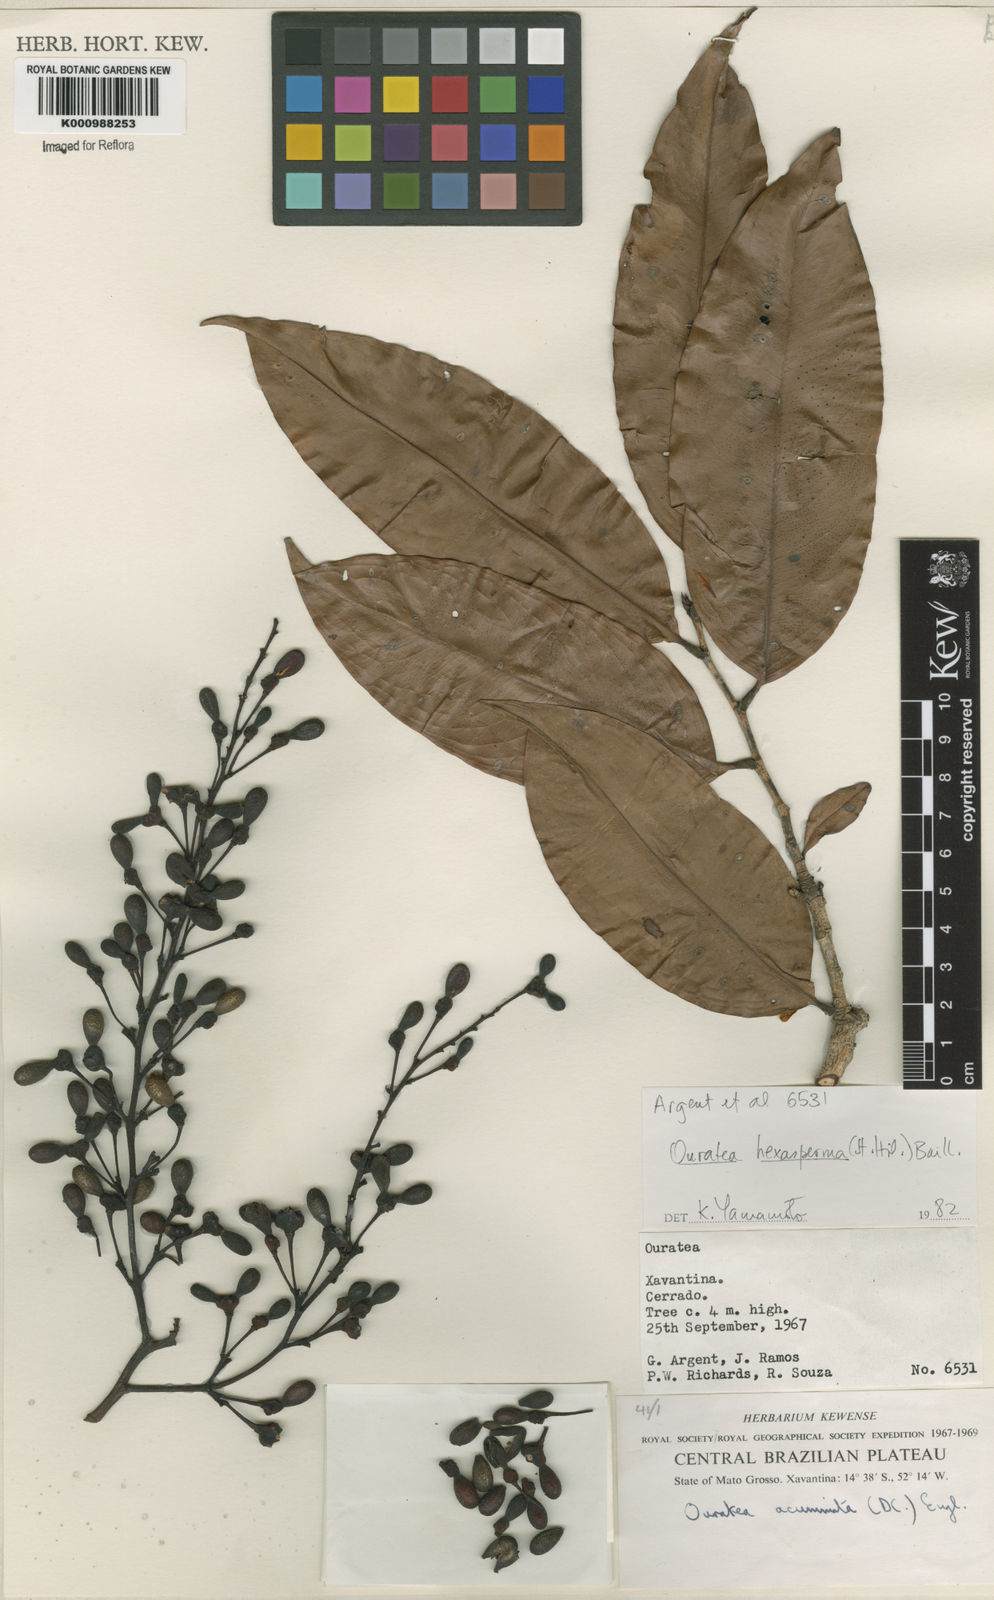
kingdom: Plantae
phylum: Tracheophyta
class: Magnoliopsida
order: Malpighiales
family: Ochnaceae
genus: Ouratea
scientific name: Ouratea hexasperma
